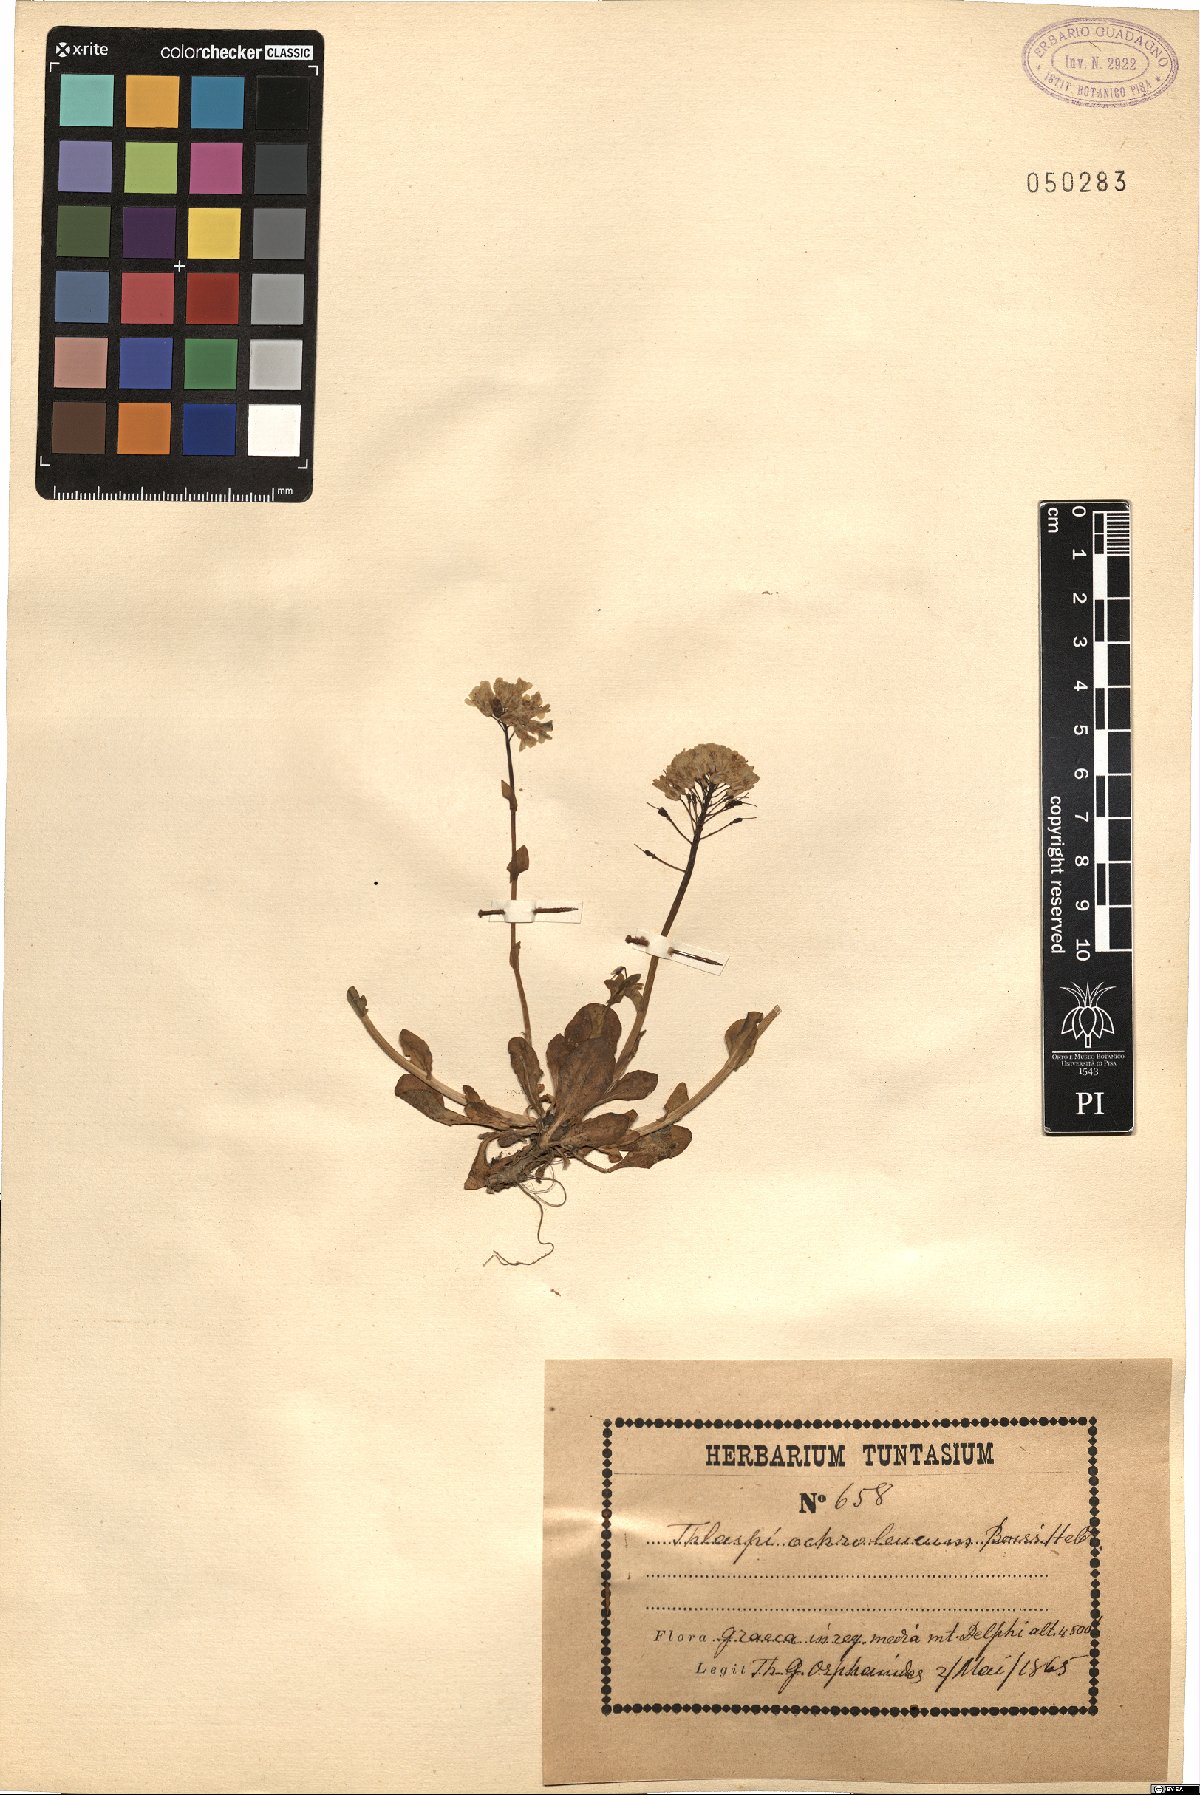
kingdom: Plantae
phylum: Tracheophyta
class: Magnoliopsida
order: Brassicales
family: Brassicaceae
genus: Noccaea
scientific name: Noccaea ochroleuca
